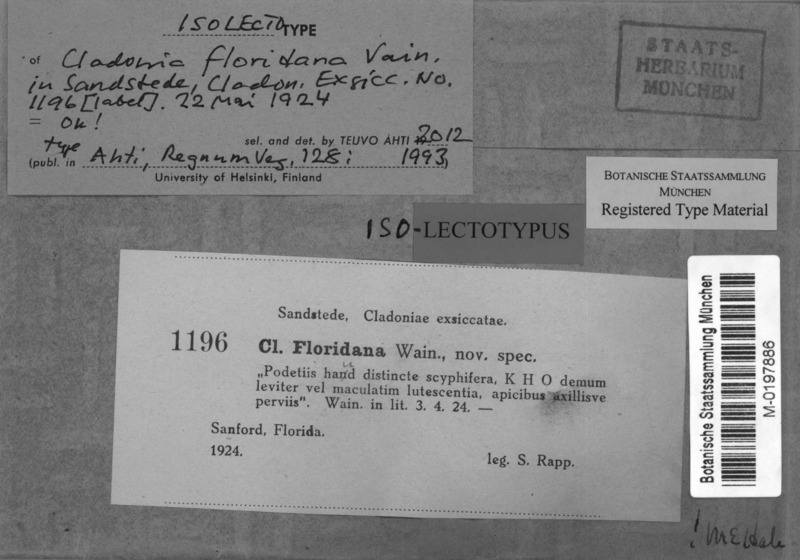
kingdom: Fungi
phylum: Ascomycota
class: Lecanoromycetes
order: Lecanorales
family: Cladoniaceae
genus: Cladonia
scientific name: Cladonia floridana
